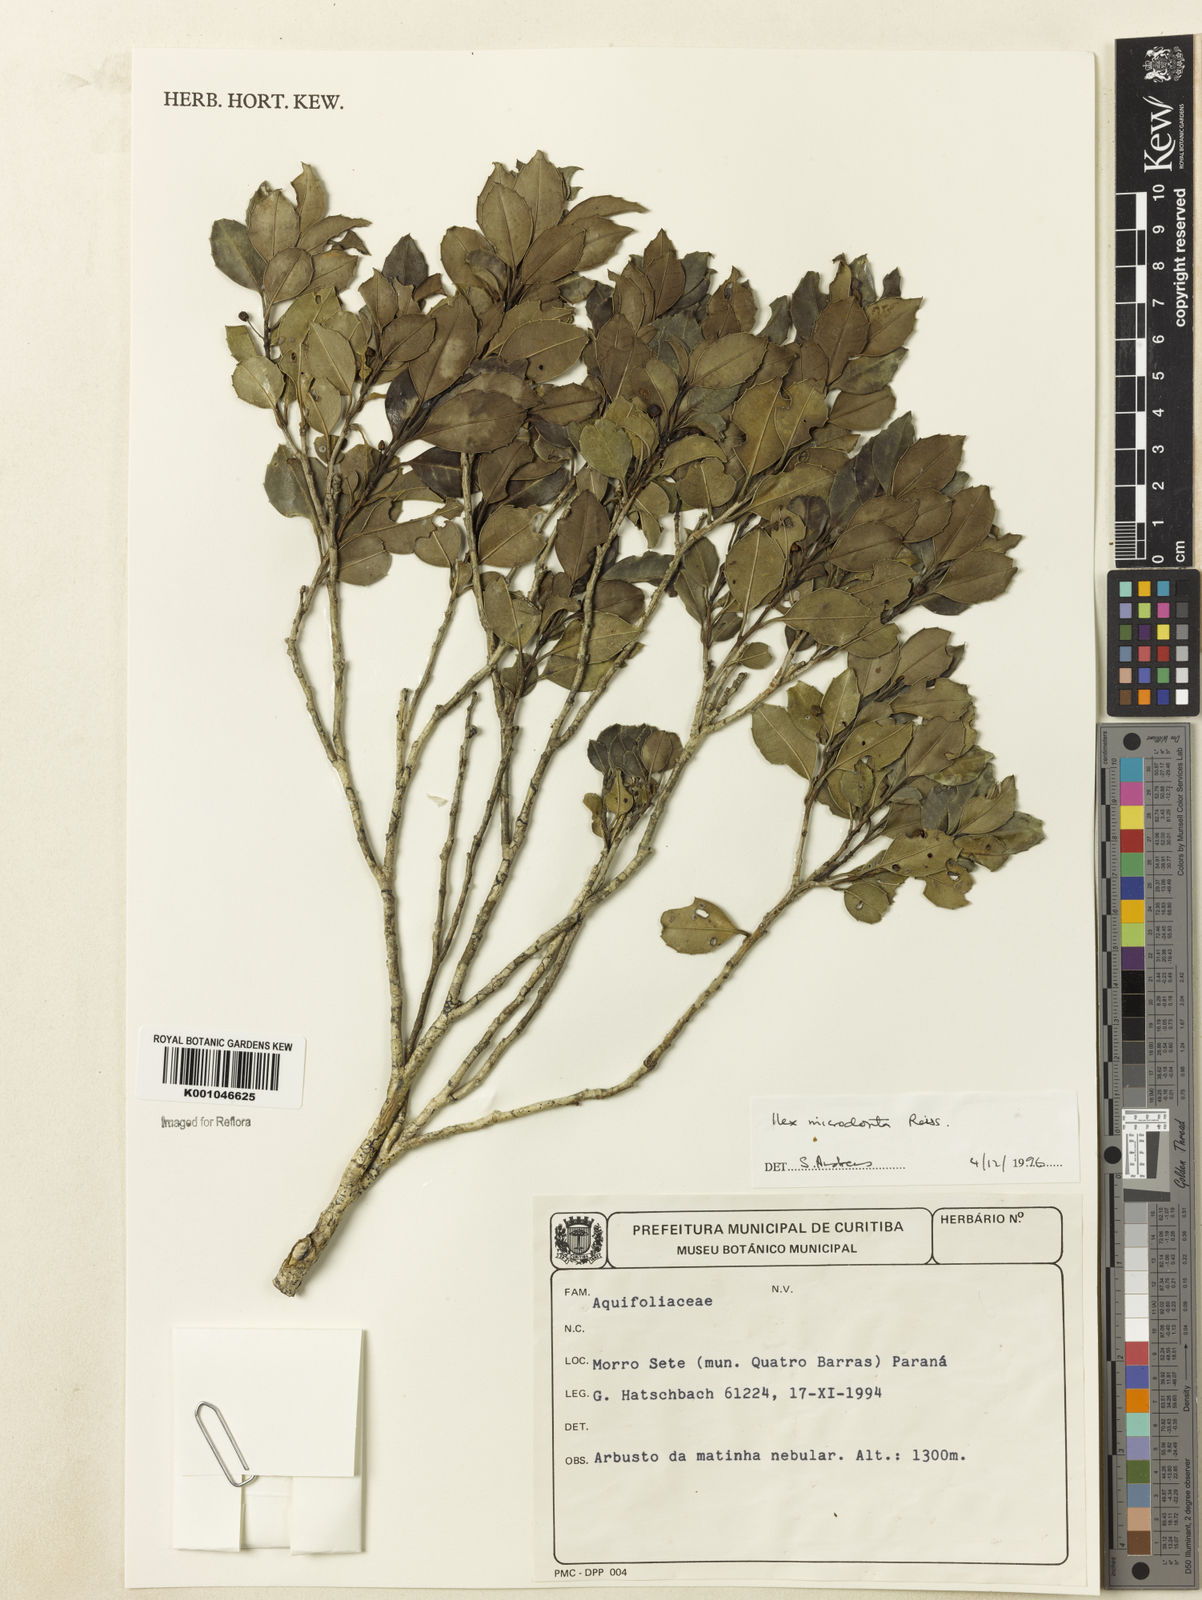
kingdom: Plantae
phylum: Tracheophyta
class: Magnoliopsida
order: Aquifoliales
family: Aquifoliaceae
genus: Ilex
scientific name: Ilex microdonta
